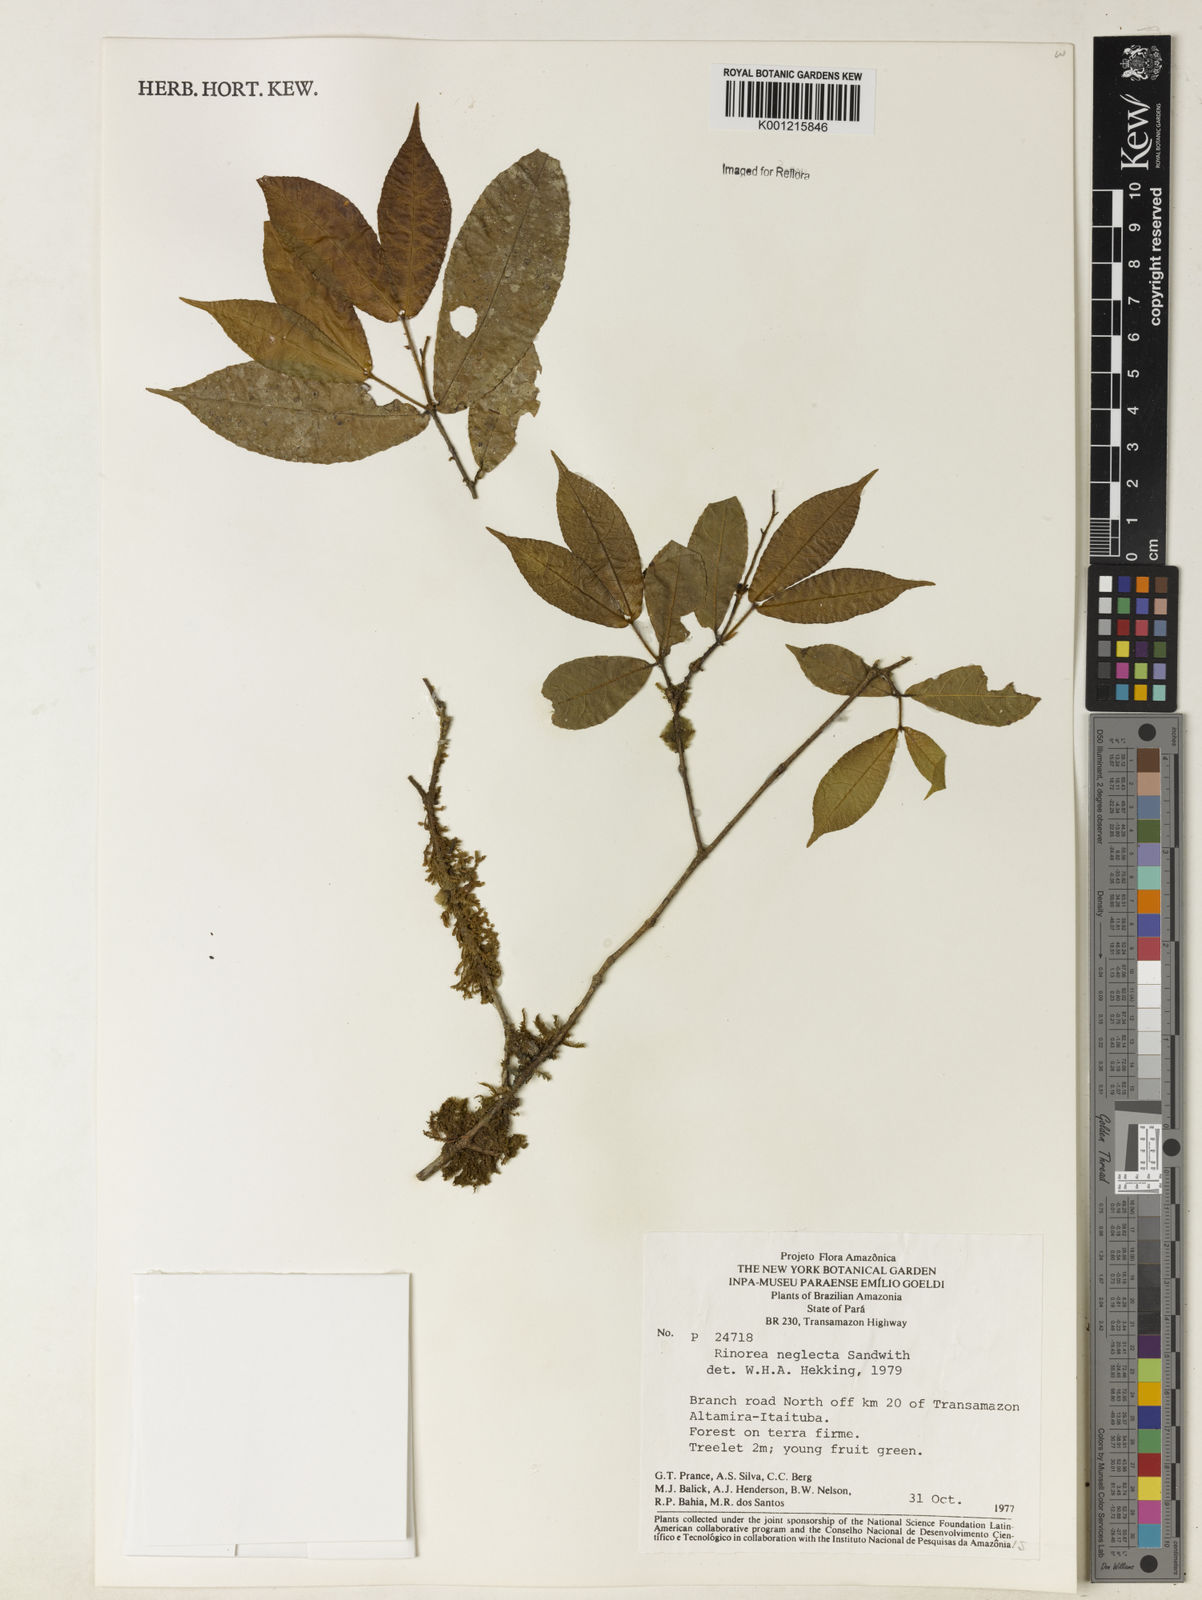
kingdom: Plantae
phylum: Tracheophyta
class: Magnoliopsida
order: Malpighiales
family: Violaceae
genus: Rinorea
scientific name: Rinorea neglecta
